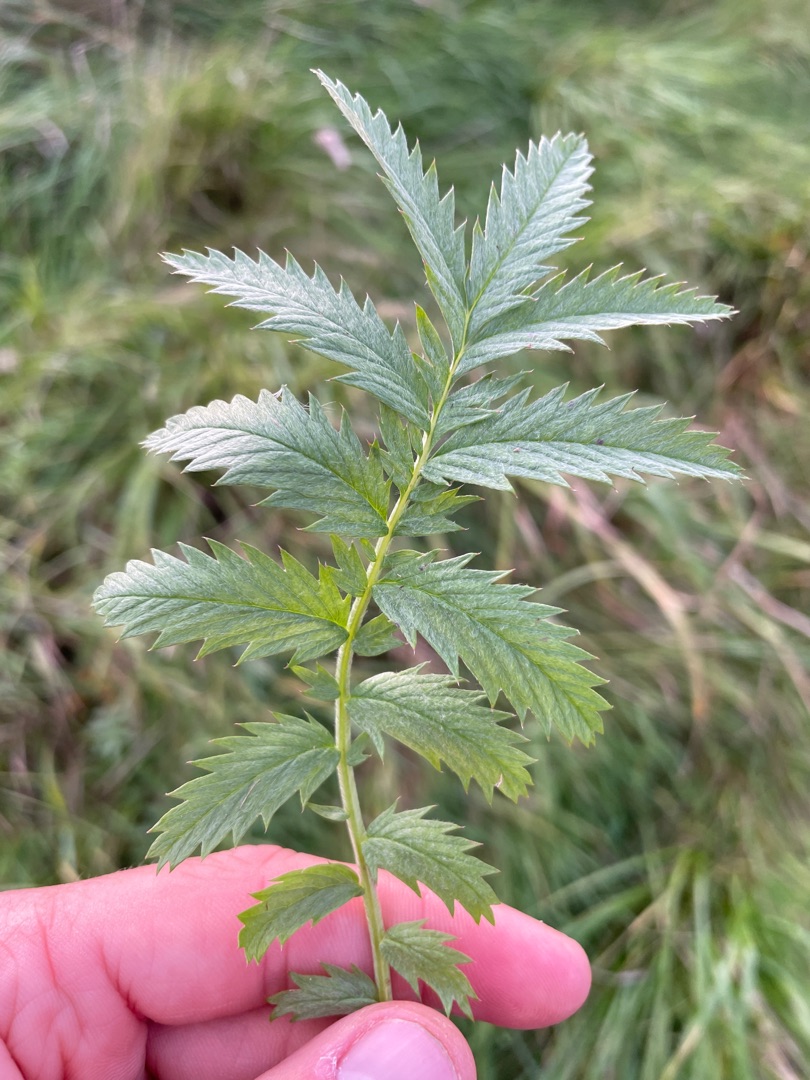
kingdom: Plantae
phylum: Tracheophyta
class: Magnoliopsida
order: Rosales
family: Rosaceae
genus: Argentina
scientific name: Argentina anserina
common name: Gåsepotentil
